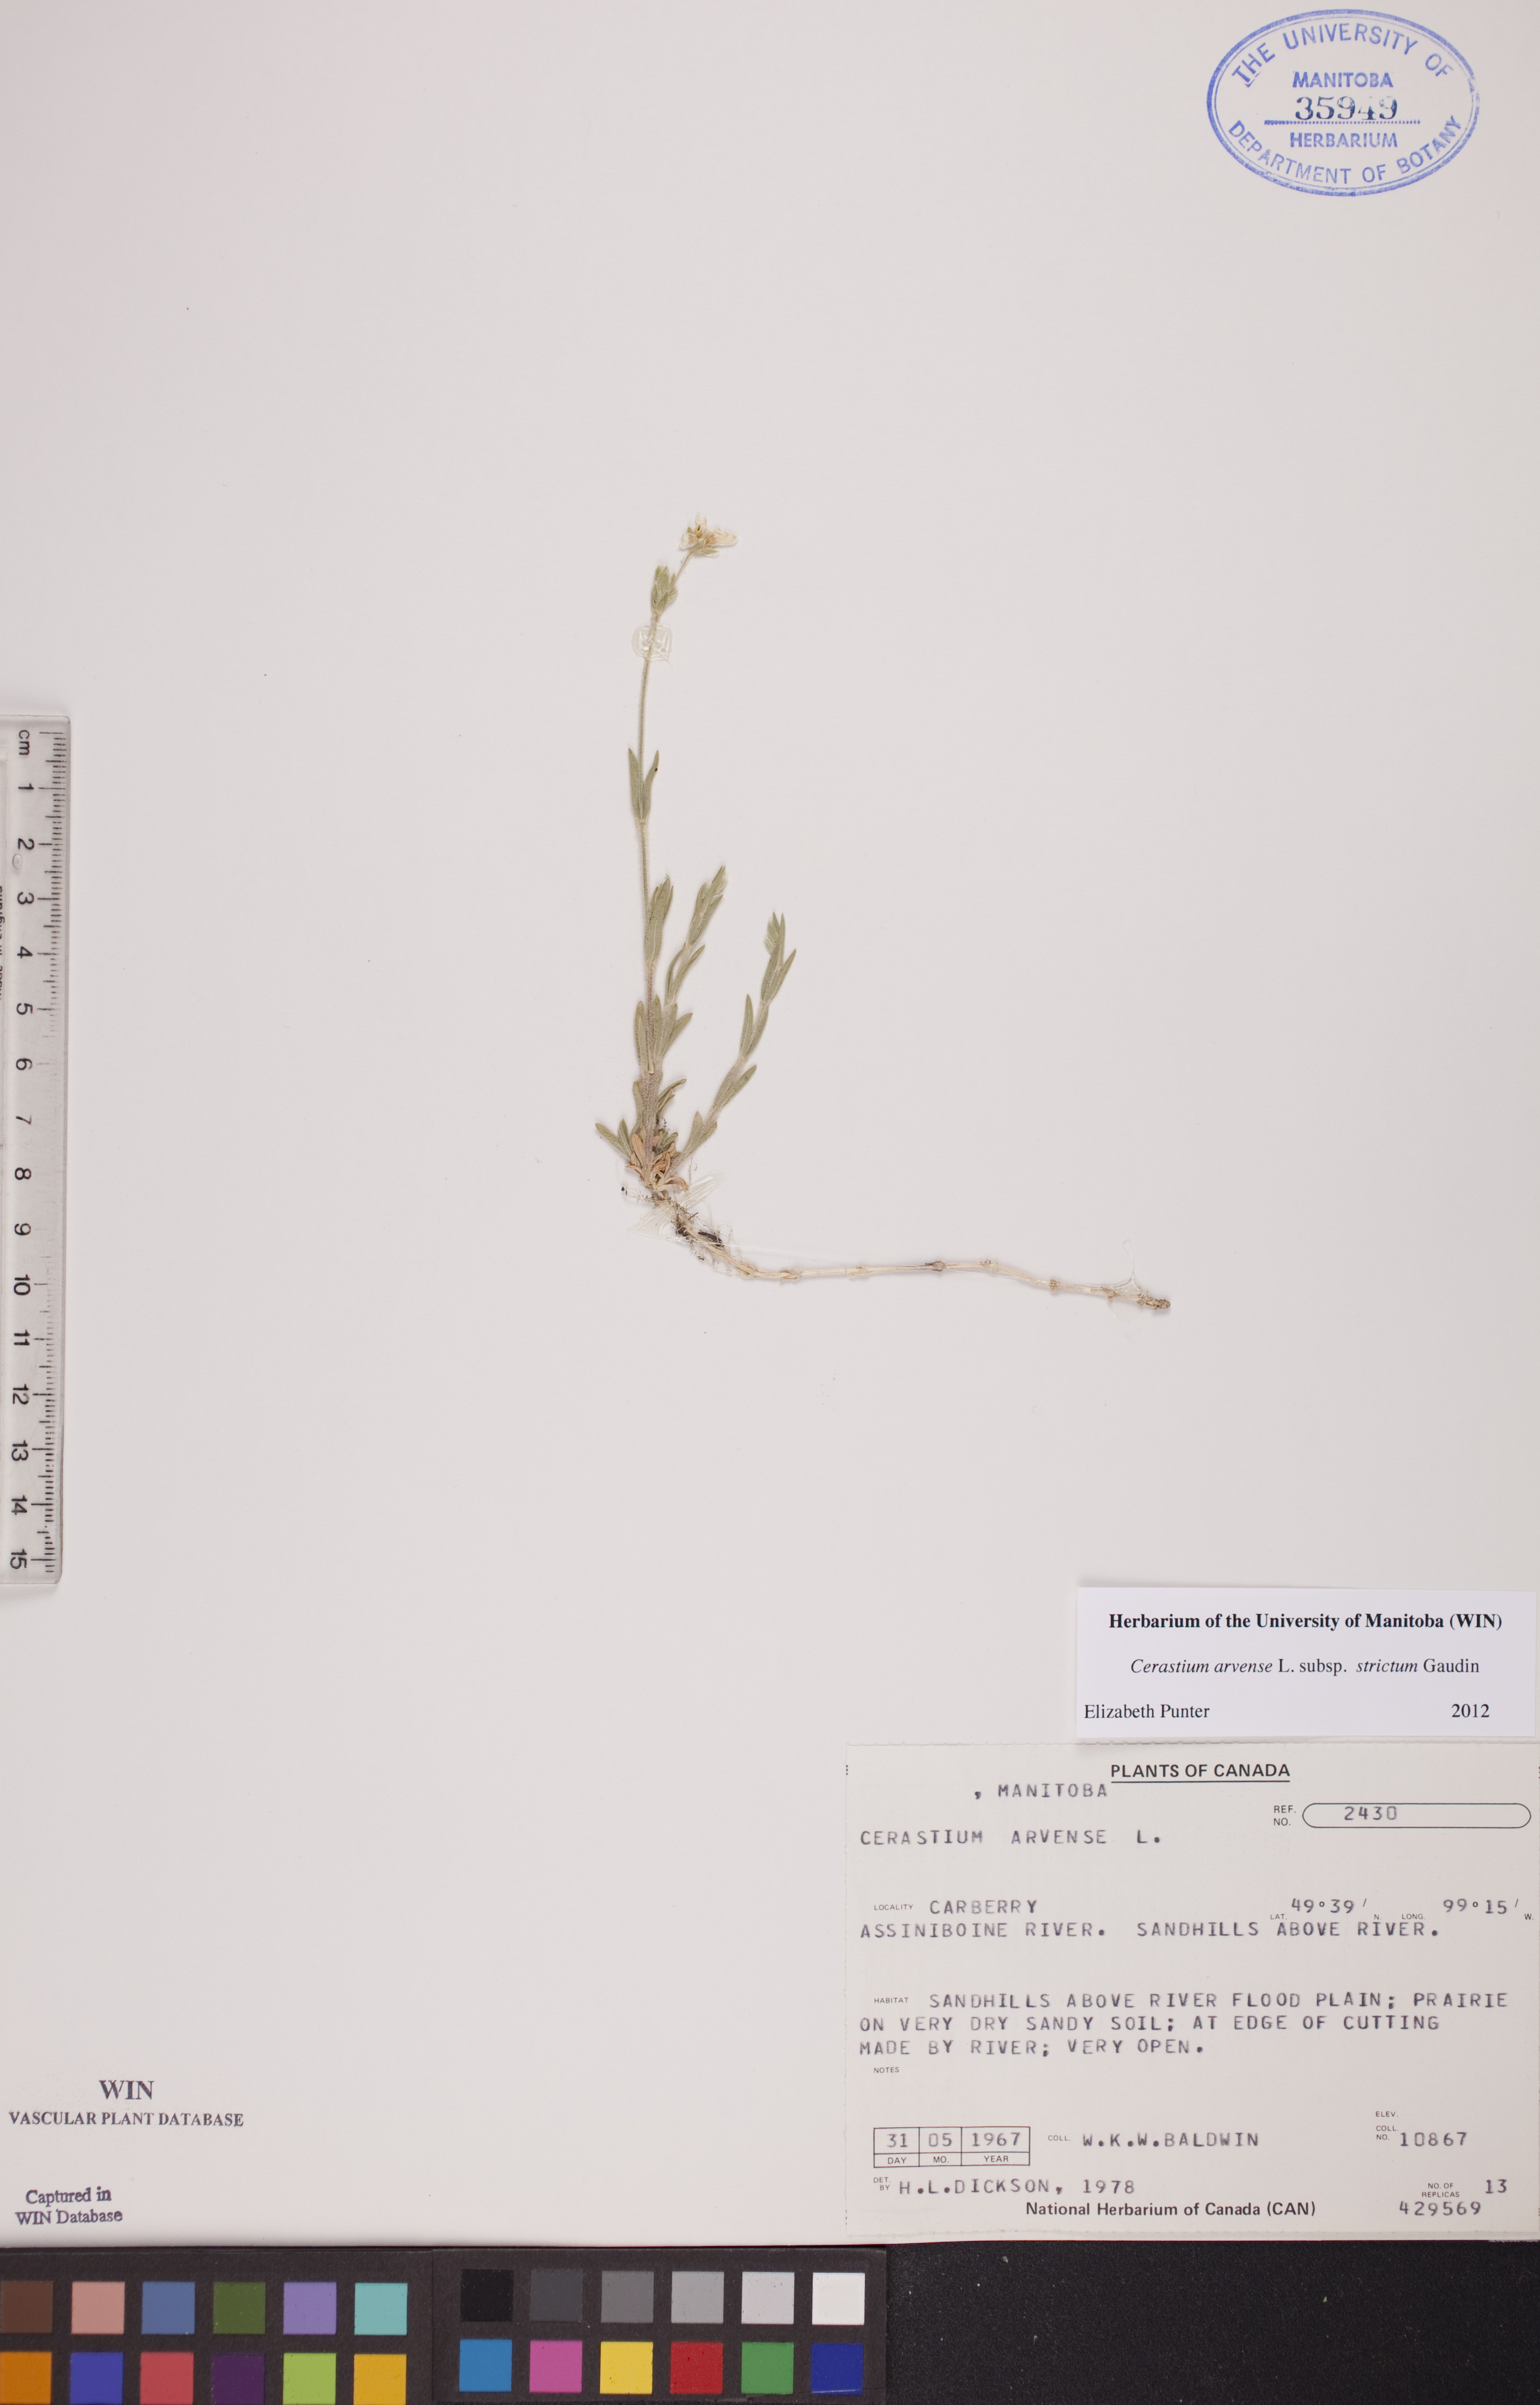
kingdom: Plantae
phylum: Tracheophyta
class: Magnoliopsida
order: Caryophyllales
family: Caryophyllaceae
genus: Cerastium
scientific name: Cerastium elongatum
